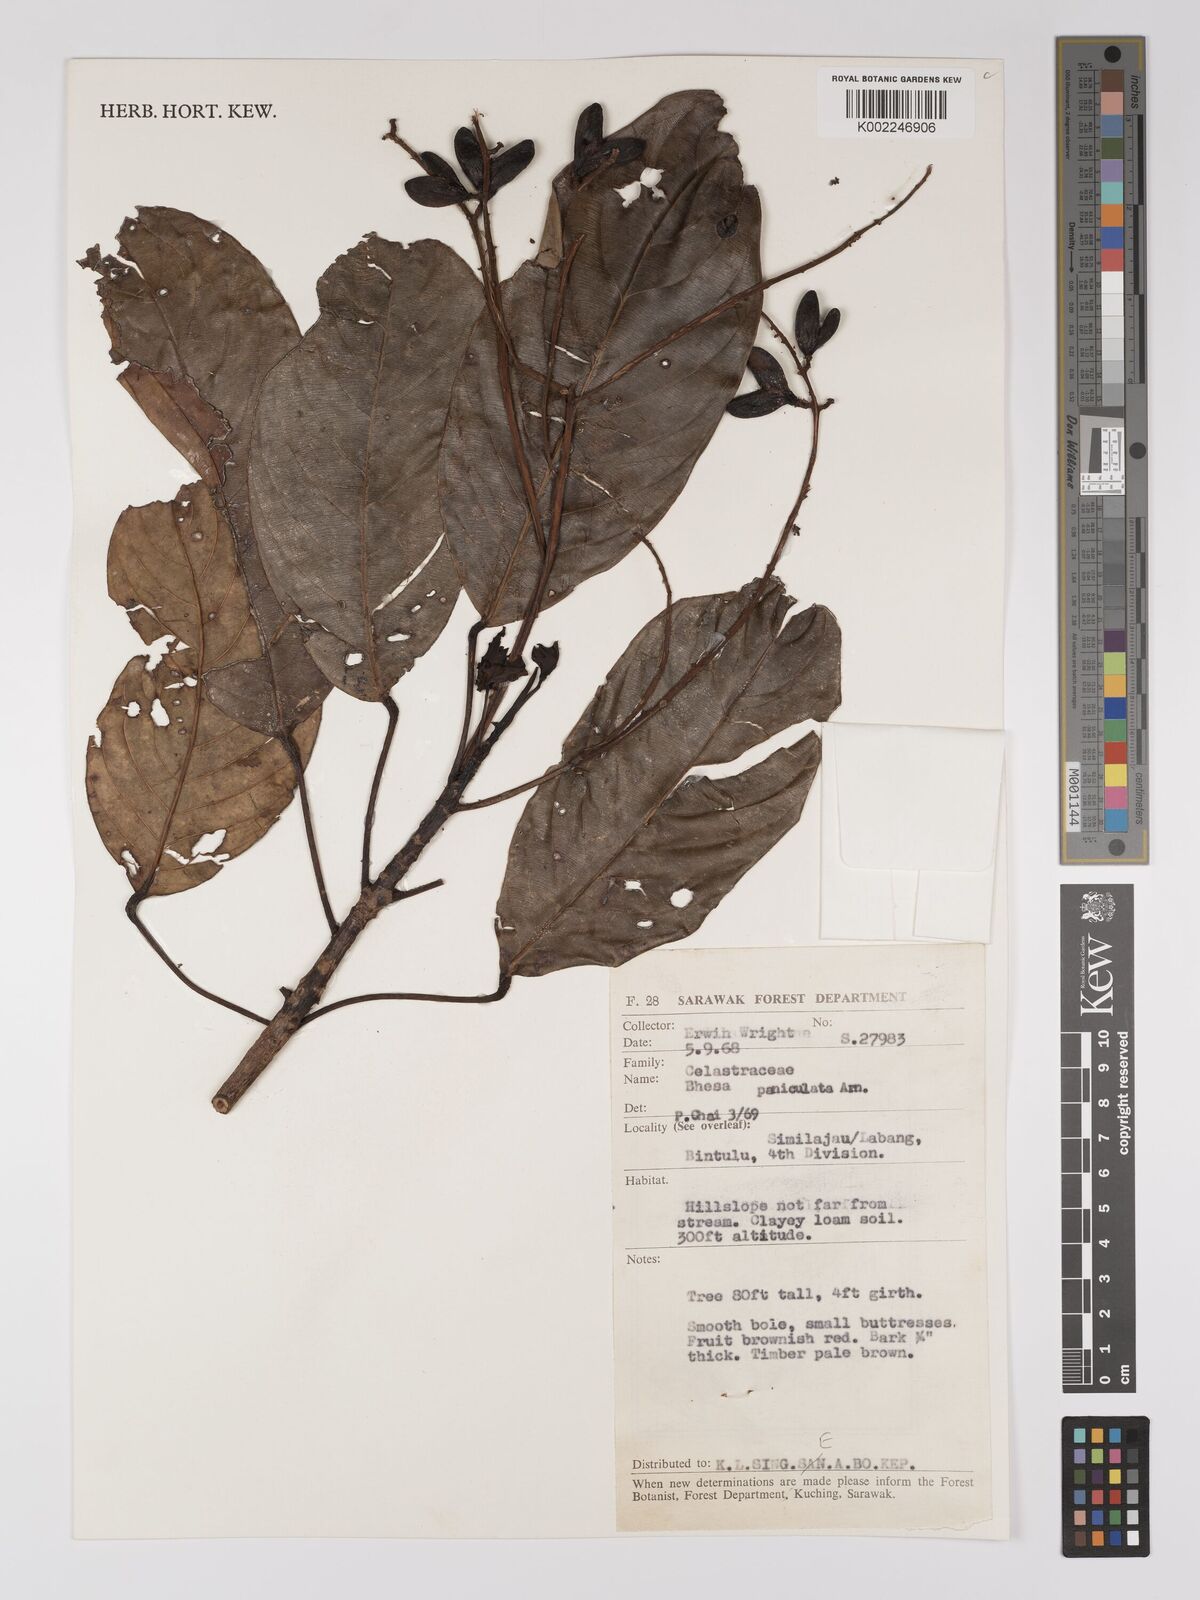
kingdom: Plantae
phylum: Tracheophyta
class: Magnoliopsida
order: Malpighiales
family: Centroplacaceae
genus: Bhesa
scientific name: Bhesa paniculata
